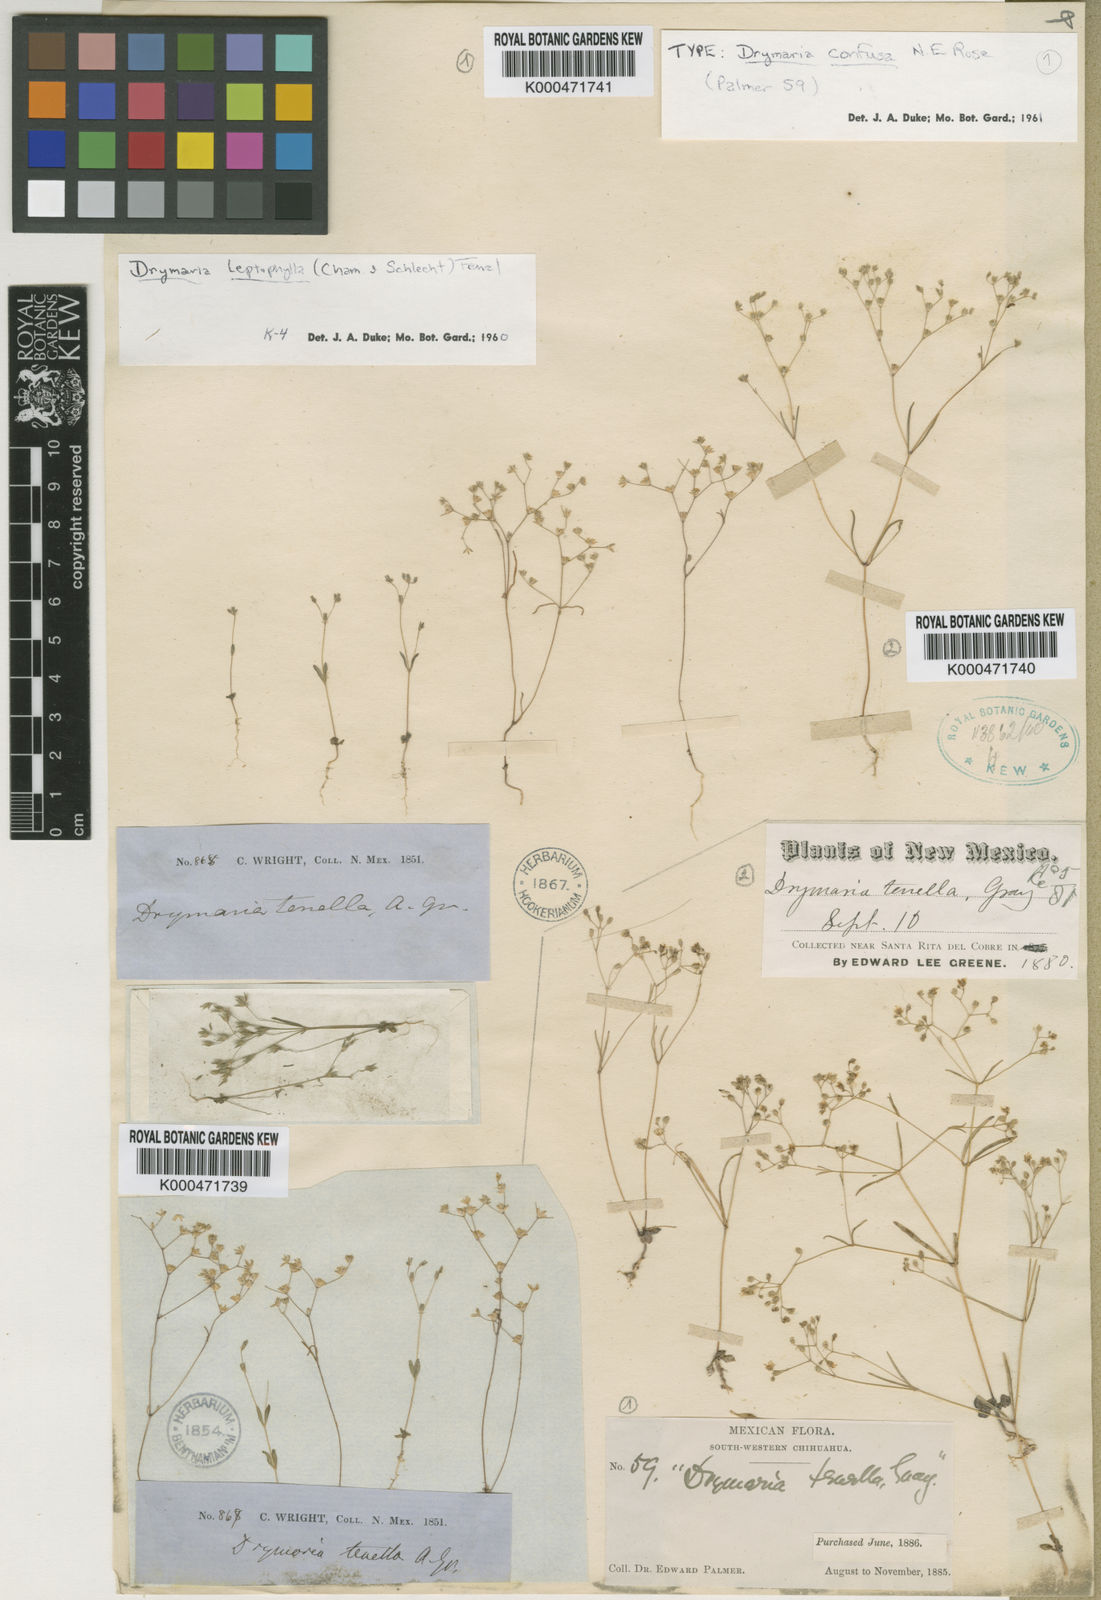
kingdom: Plantae
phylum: Tracheophyta
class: Magnoliopsida
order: Caryophyllales
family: Caryophyllaceae
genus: Drymaria
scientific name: Drymaria leptophylla
